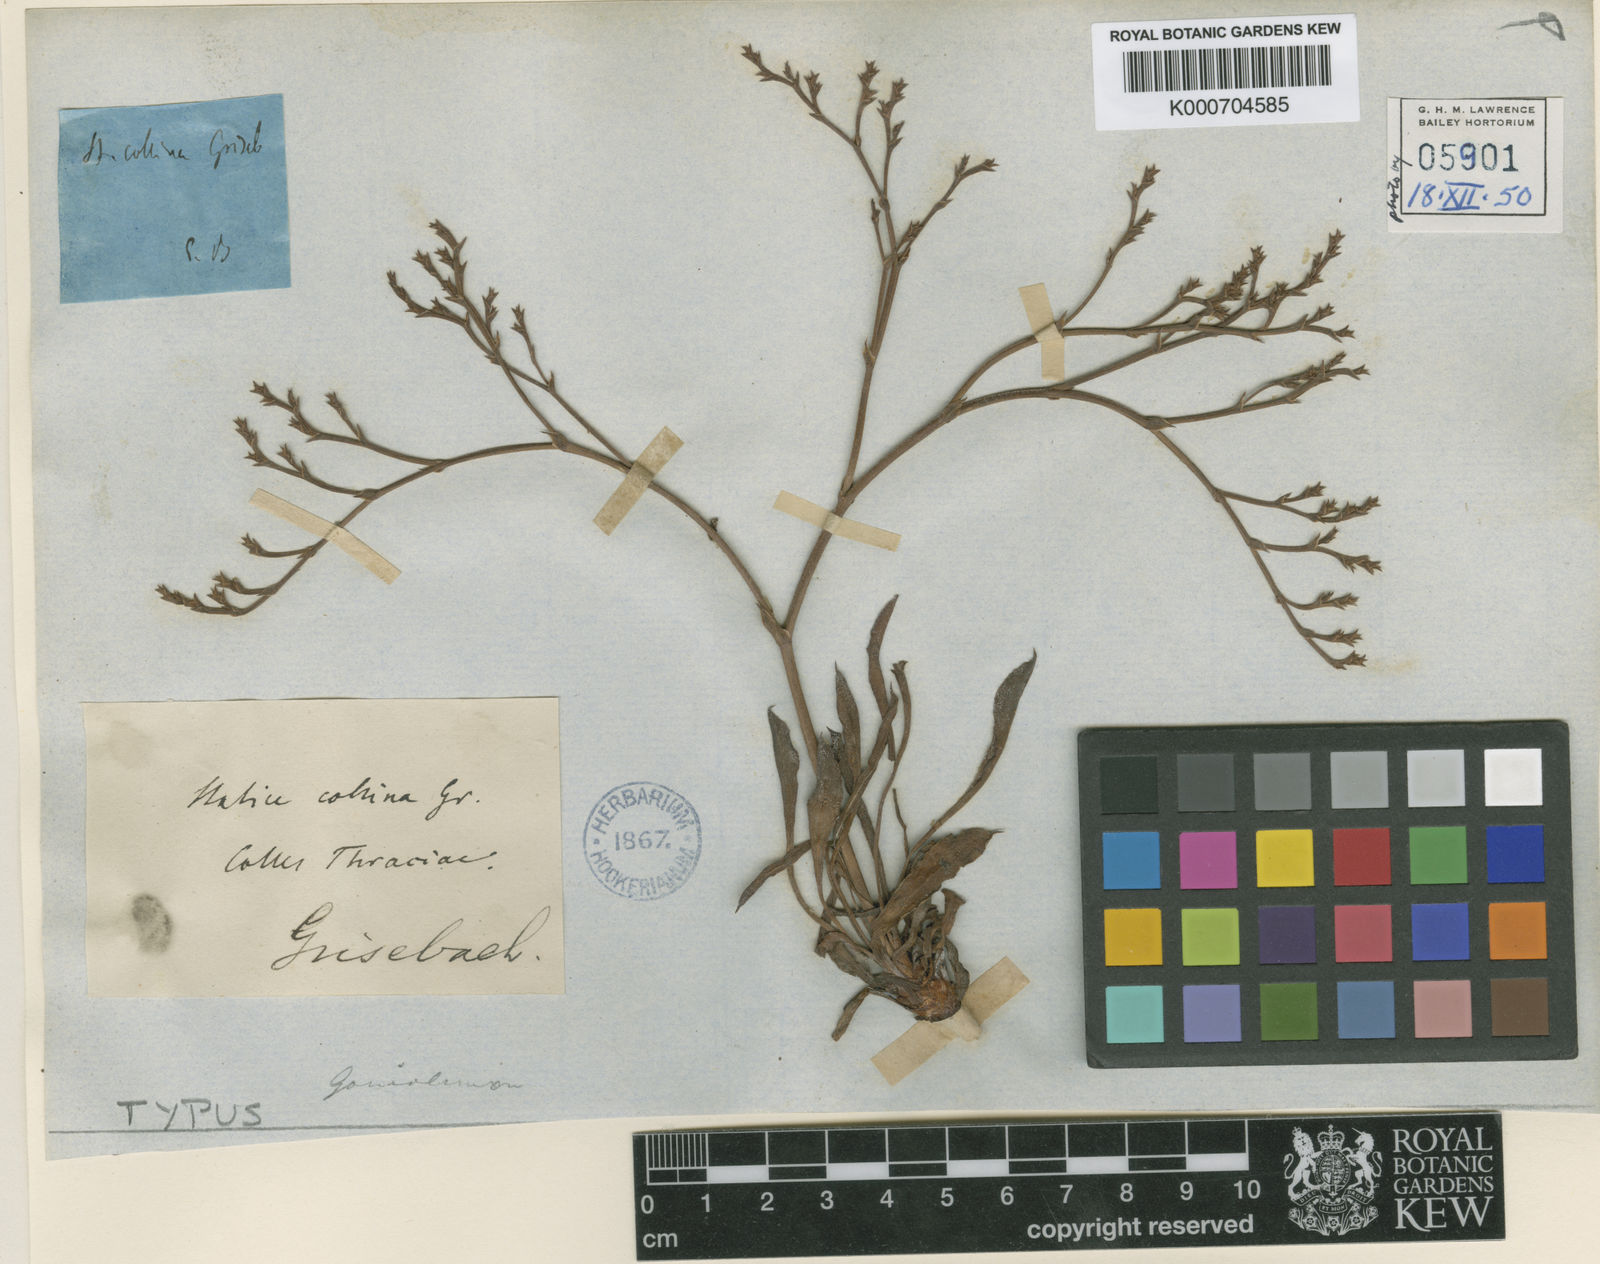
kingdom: Plantae
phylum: Tracheophyta
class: Magnoliopsida
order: Caryophyllales
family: Plumbaginaceae
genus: Goniolimon
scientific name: Goniolimon incanum
